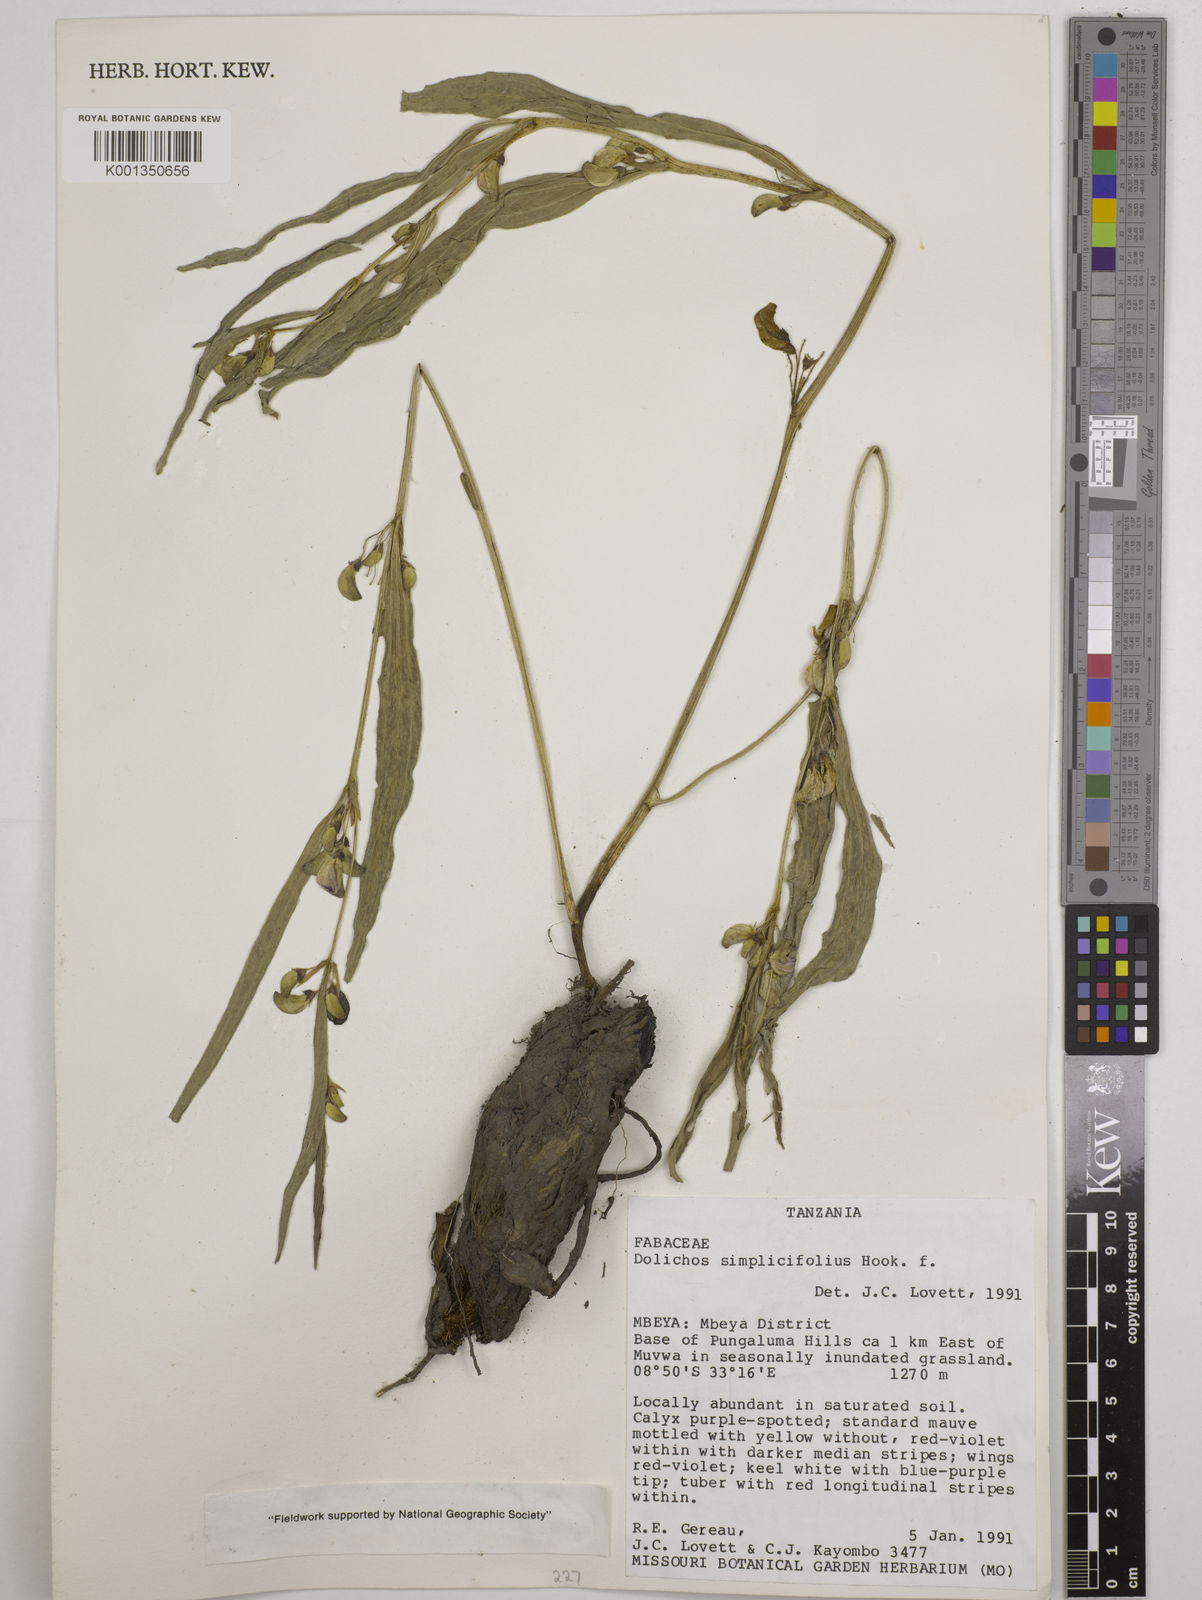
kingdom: Plantae
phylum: Tracheophyta
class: Magnoliopsida
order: Fabales
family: Fabaceae
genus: Dolichos
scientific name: Dolichos simplicifolius
